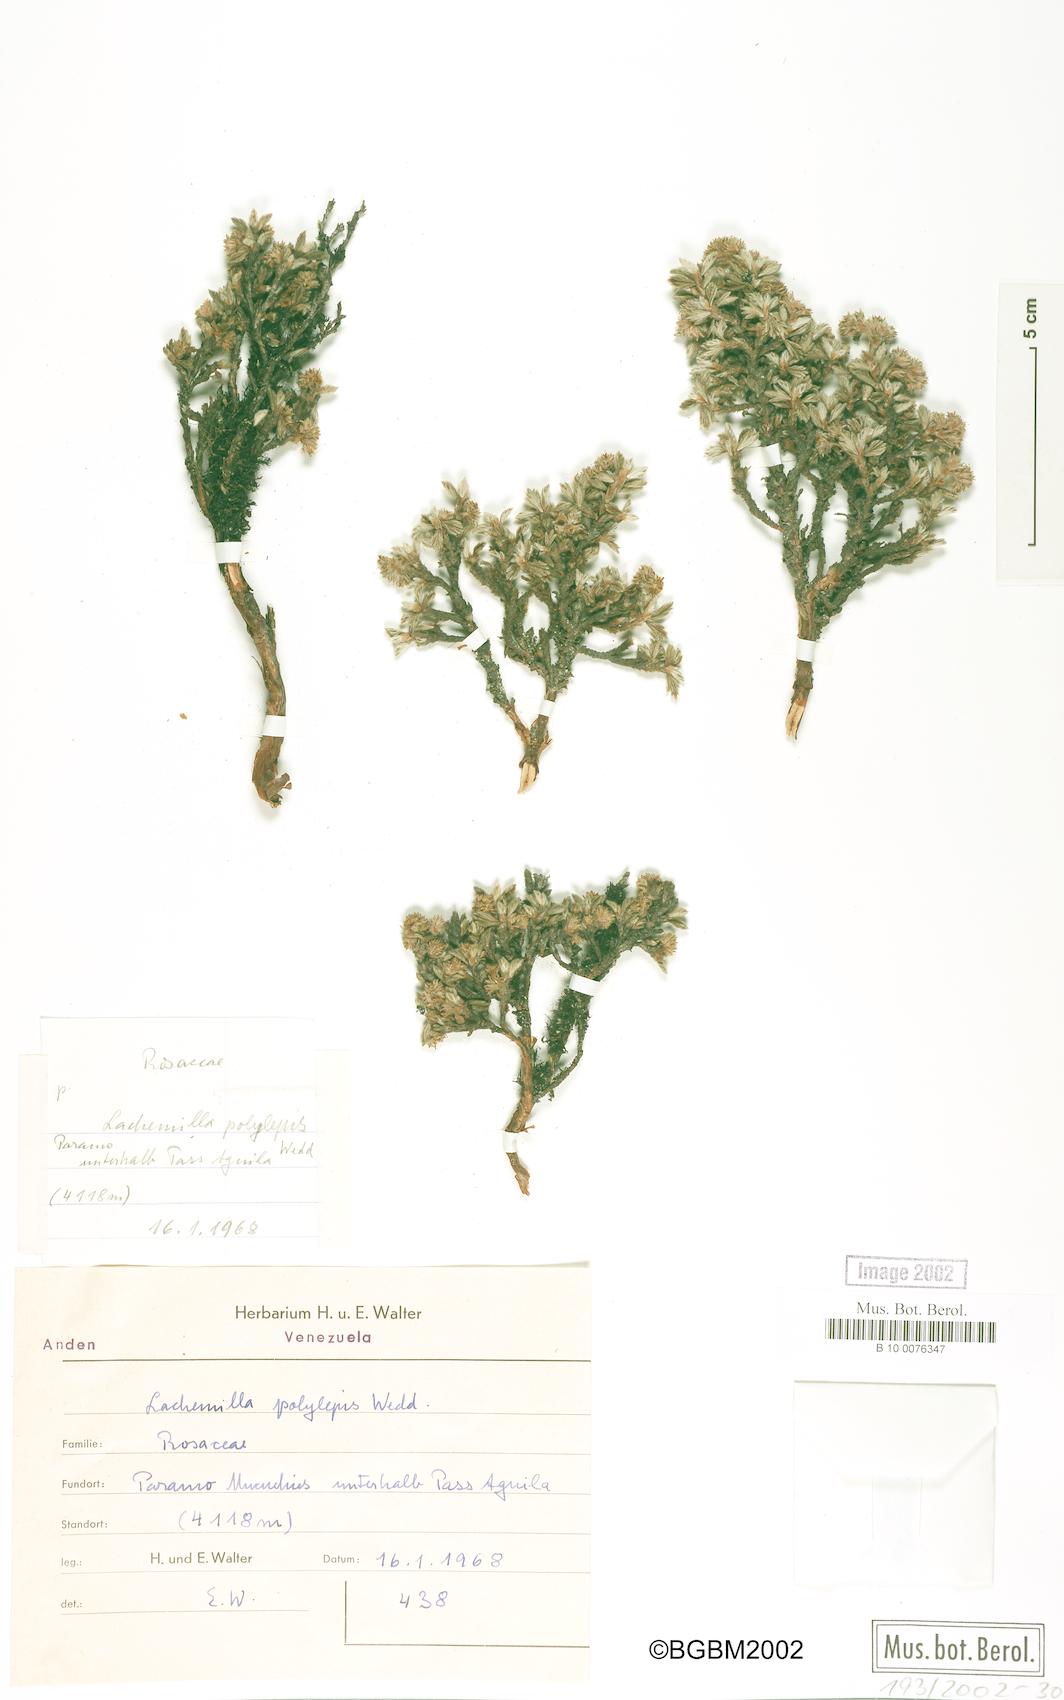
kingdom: Plantae
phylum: Tracheophyta
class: Magnoliopsida
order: Rosales
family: Rosaceae
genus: Lachemilla
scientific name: Lachemilla polylepis
